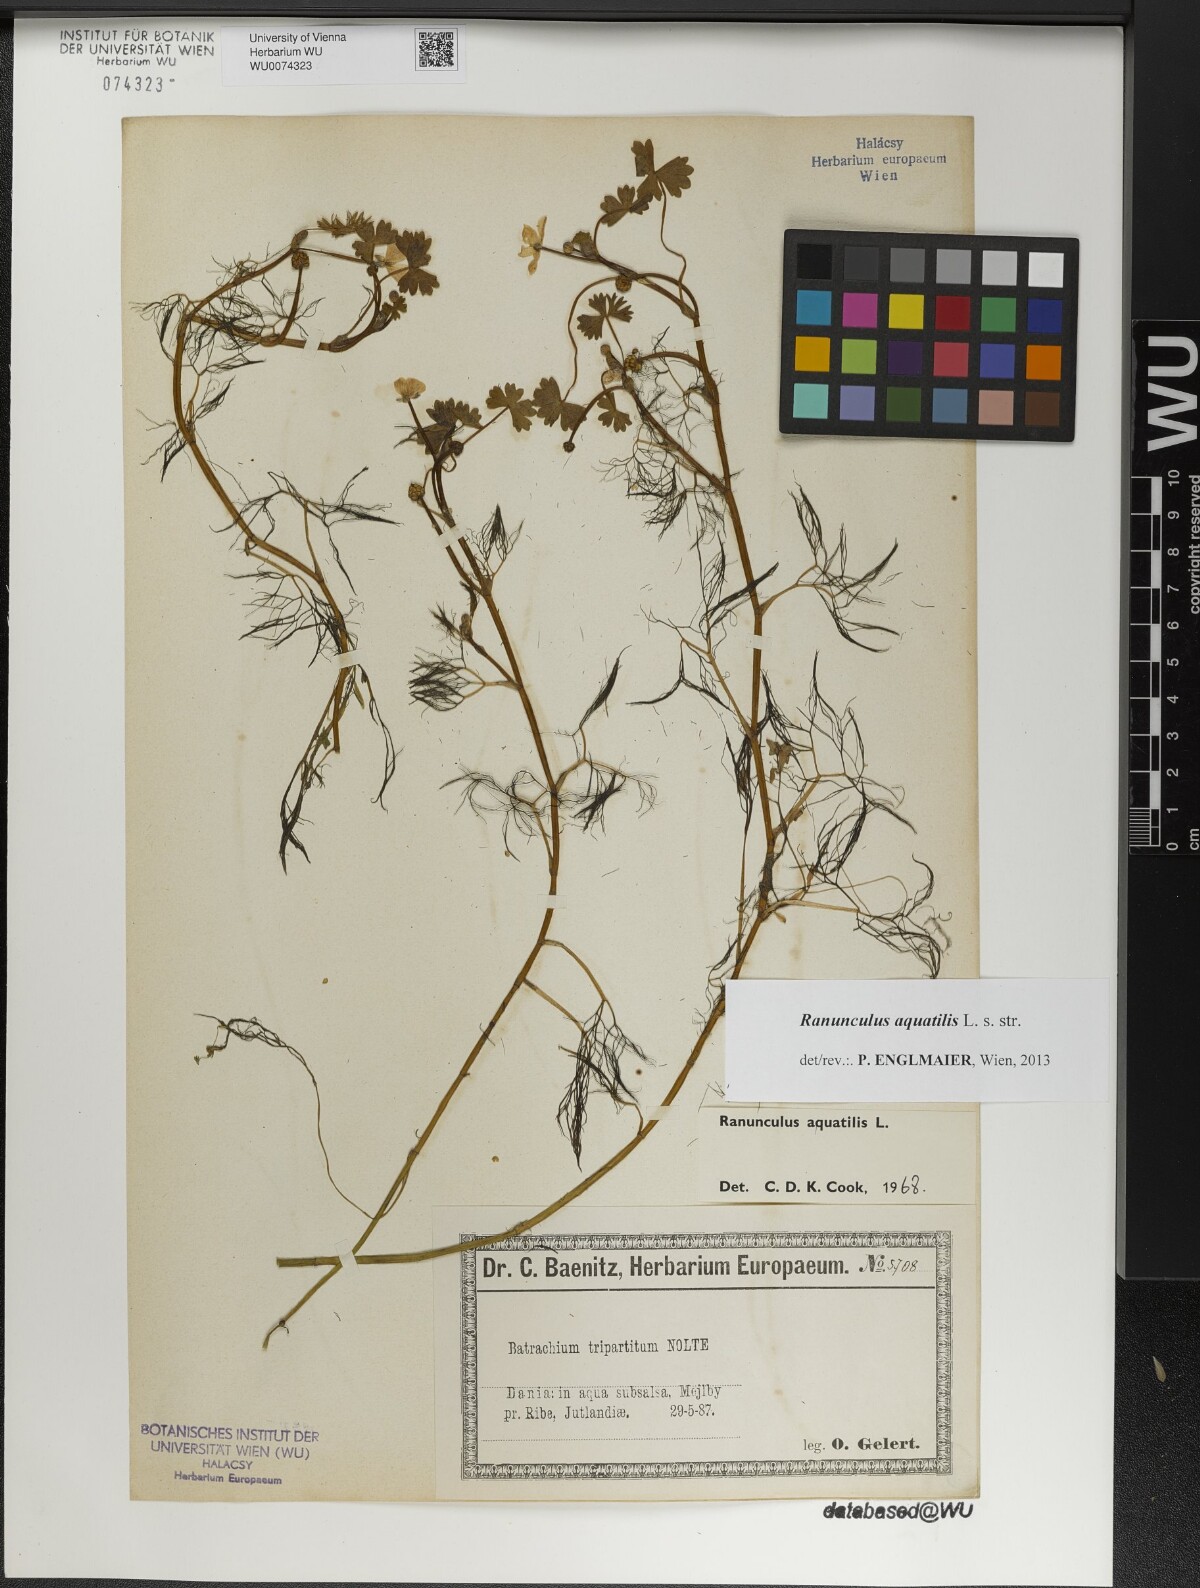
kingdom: Plantae
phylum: Tracheophyta
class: Magnoliopsida
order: Ranunculales
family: Ranunculaceae
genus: Ranunculus
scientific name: Ranunculus aquatilis
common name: Common water-crowfoot
